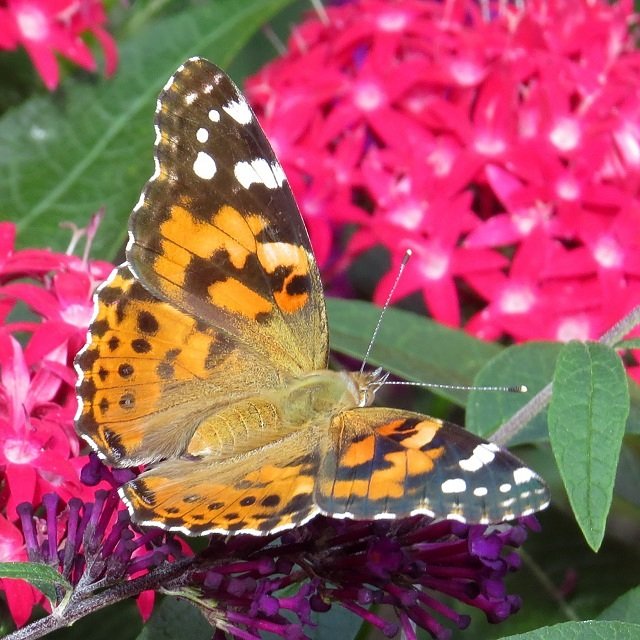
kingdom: Animalia
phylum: Arthropoda
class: Insecta
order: Lepidoptera
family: Nymphalidae
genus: Vanessa
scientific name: Vanessa cardui
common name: Painted Lady
